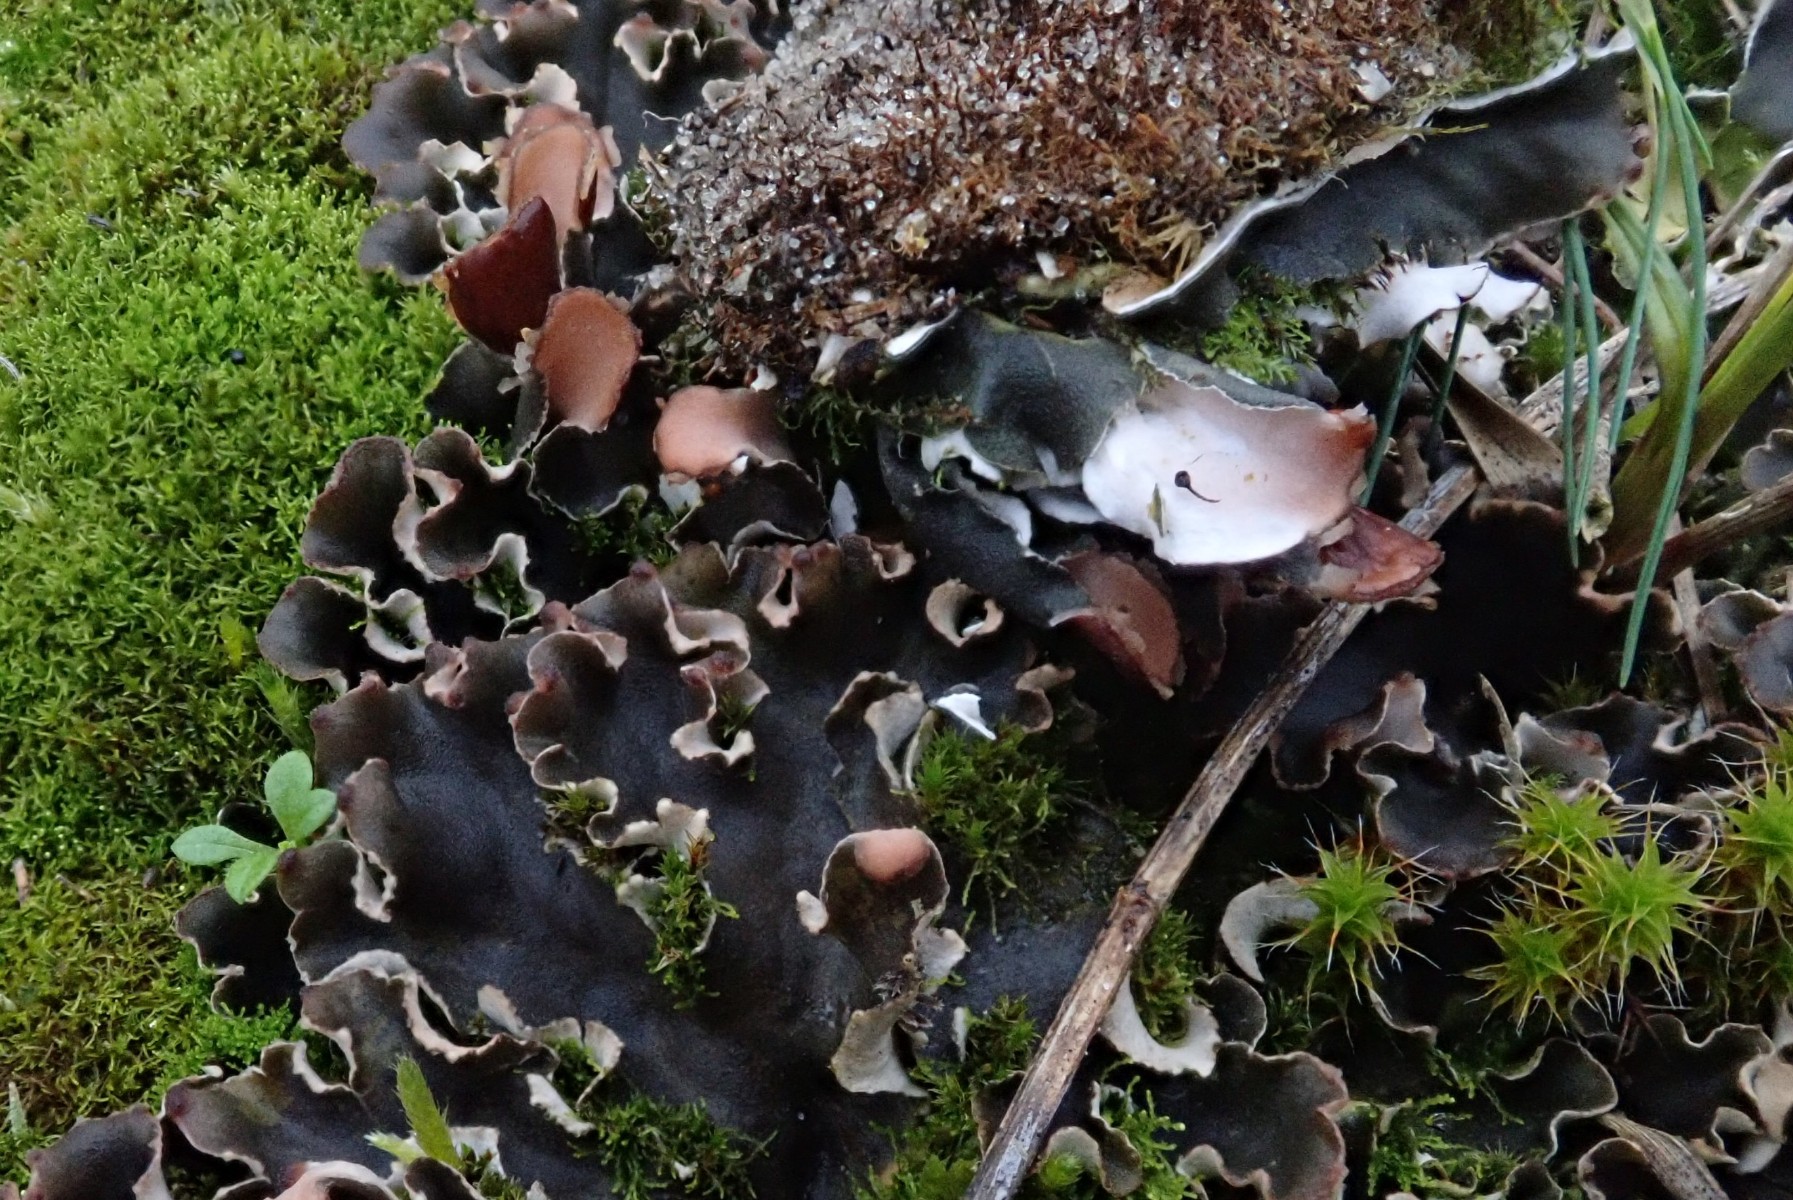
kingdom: Fungi
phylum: Ascomycota
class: Lecanoromycetes
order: Peltigerales
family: Peltigeraceae
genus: Peltigera
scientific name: Peltigera
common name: skjoldlav
